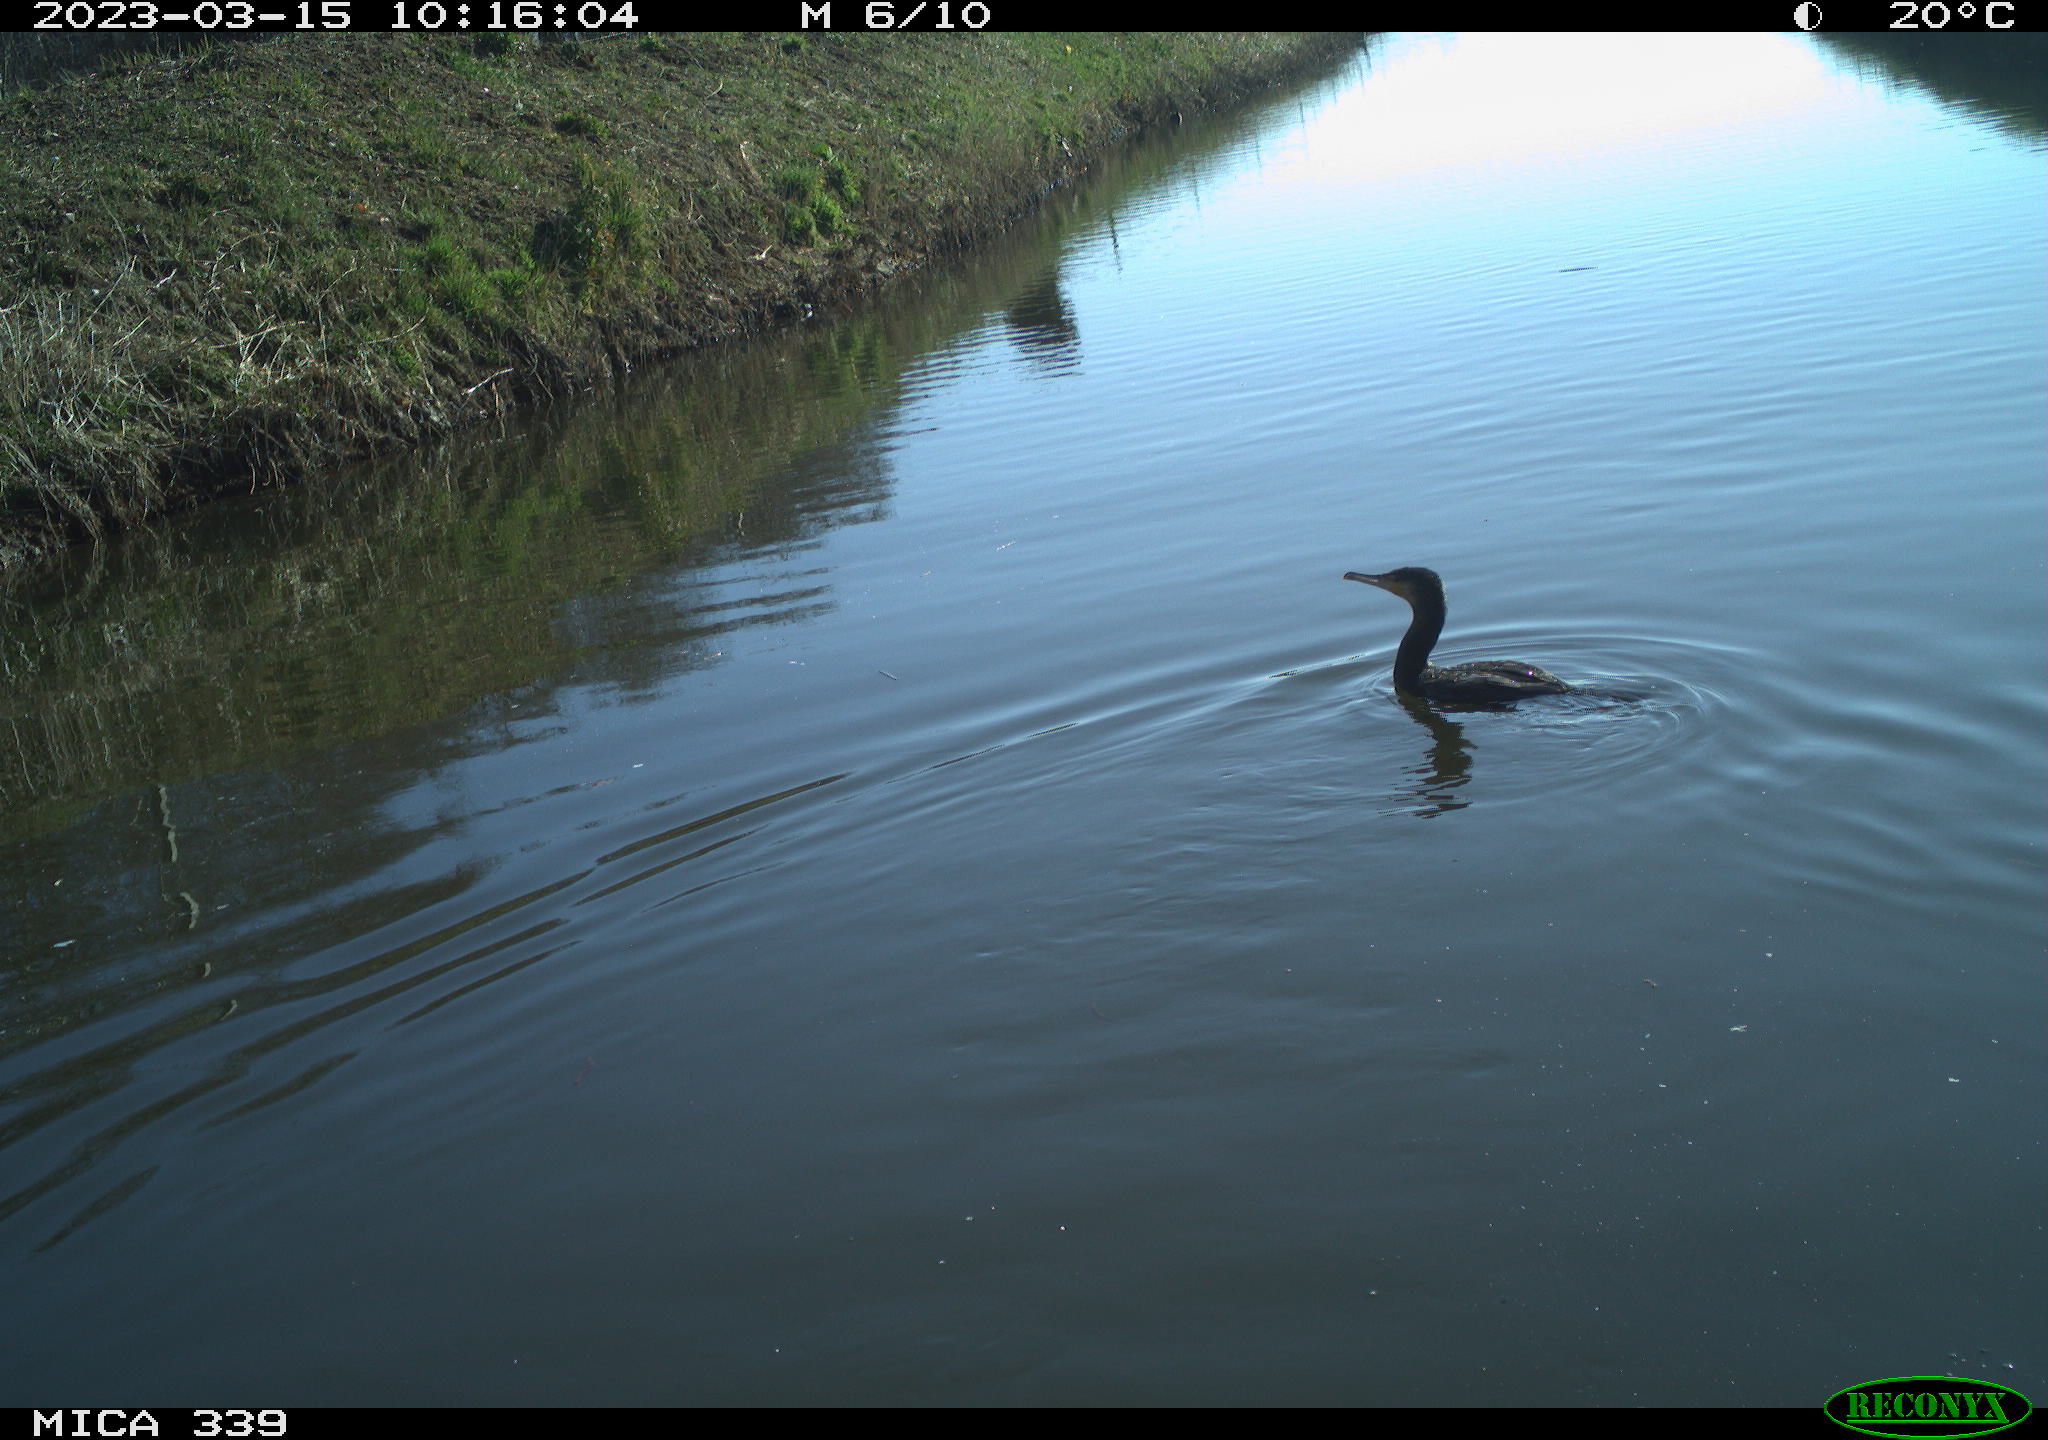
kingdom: Animalia
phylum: Chordata
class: Aves
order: Suliformes
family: Phalacrocoracidae
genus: Phalacrocorax
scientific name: Phalacrocorax carbo
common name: Great cormorant
